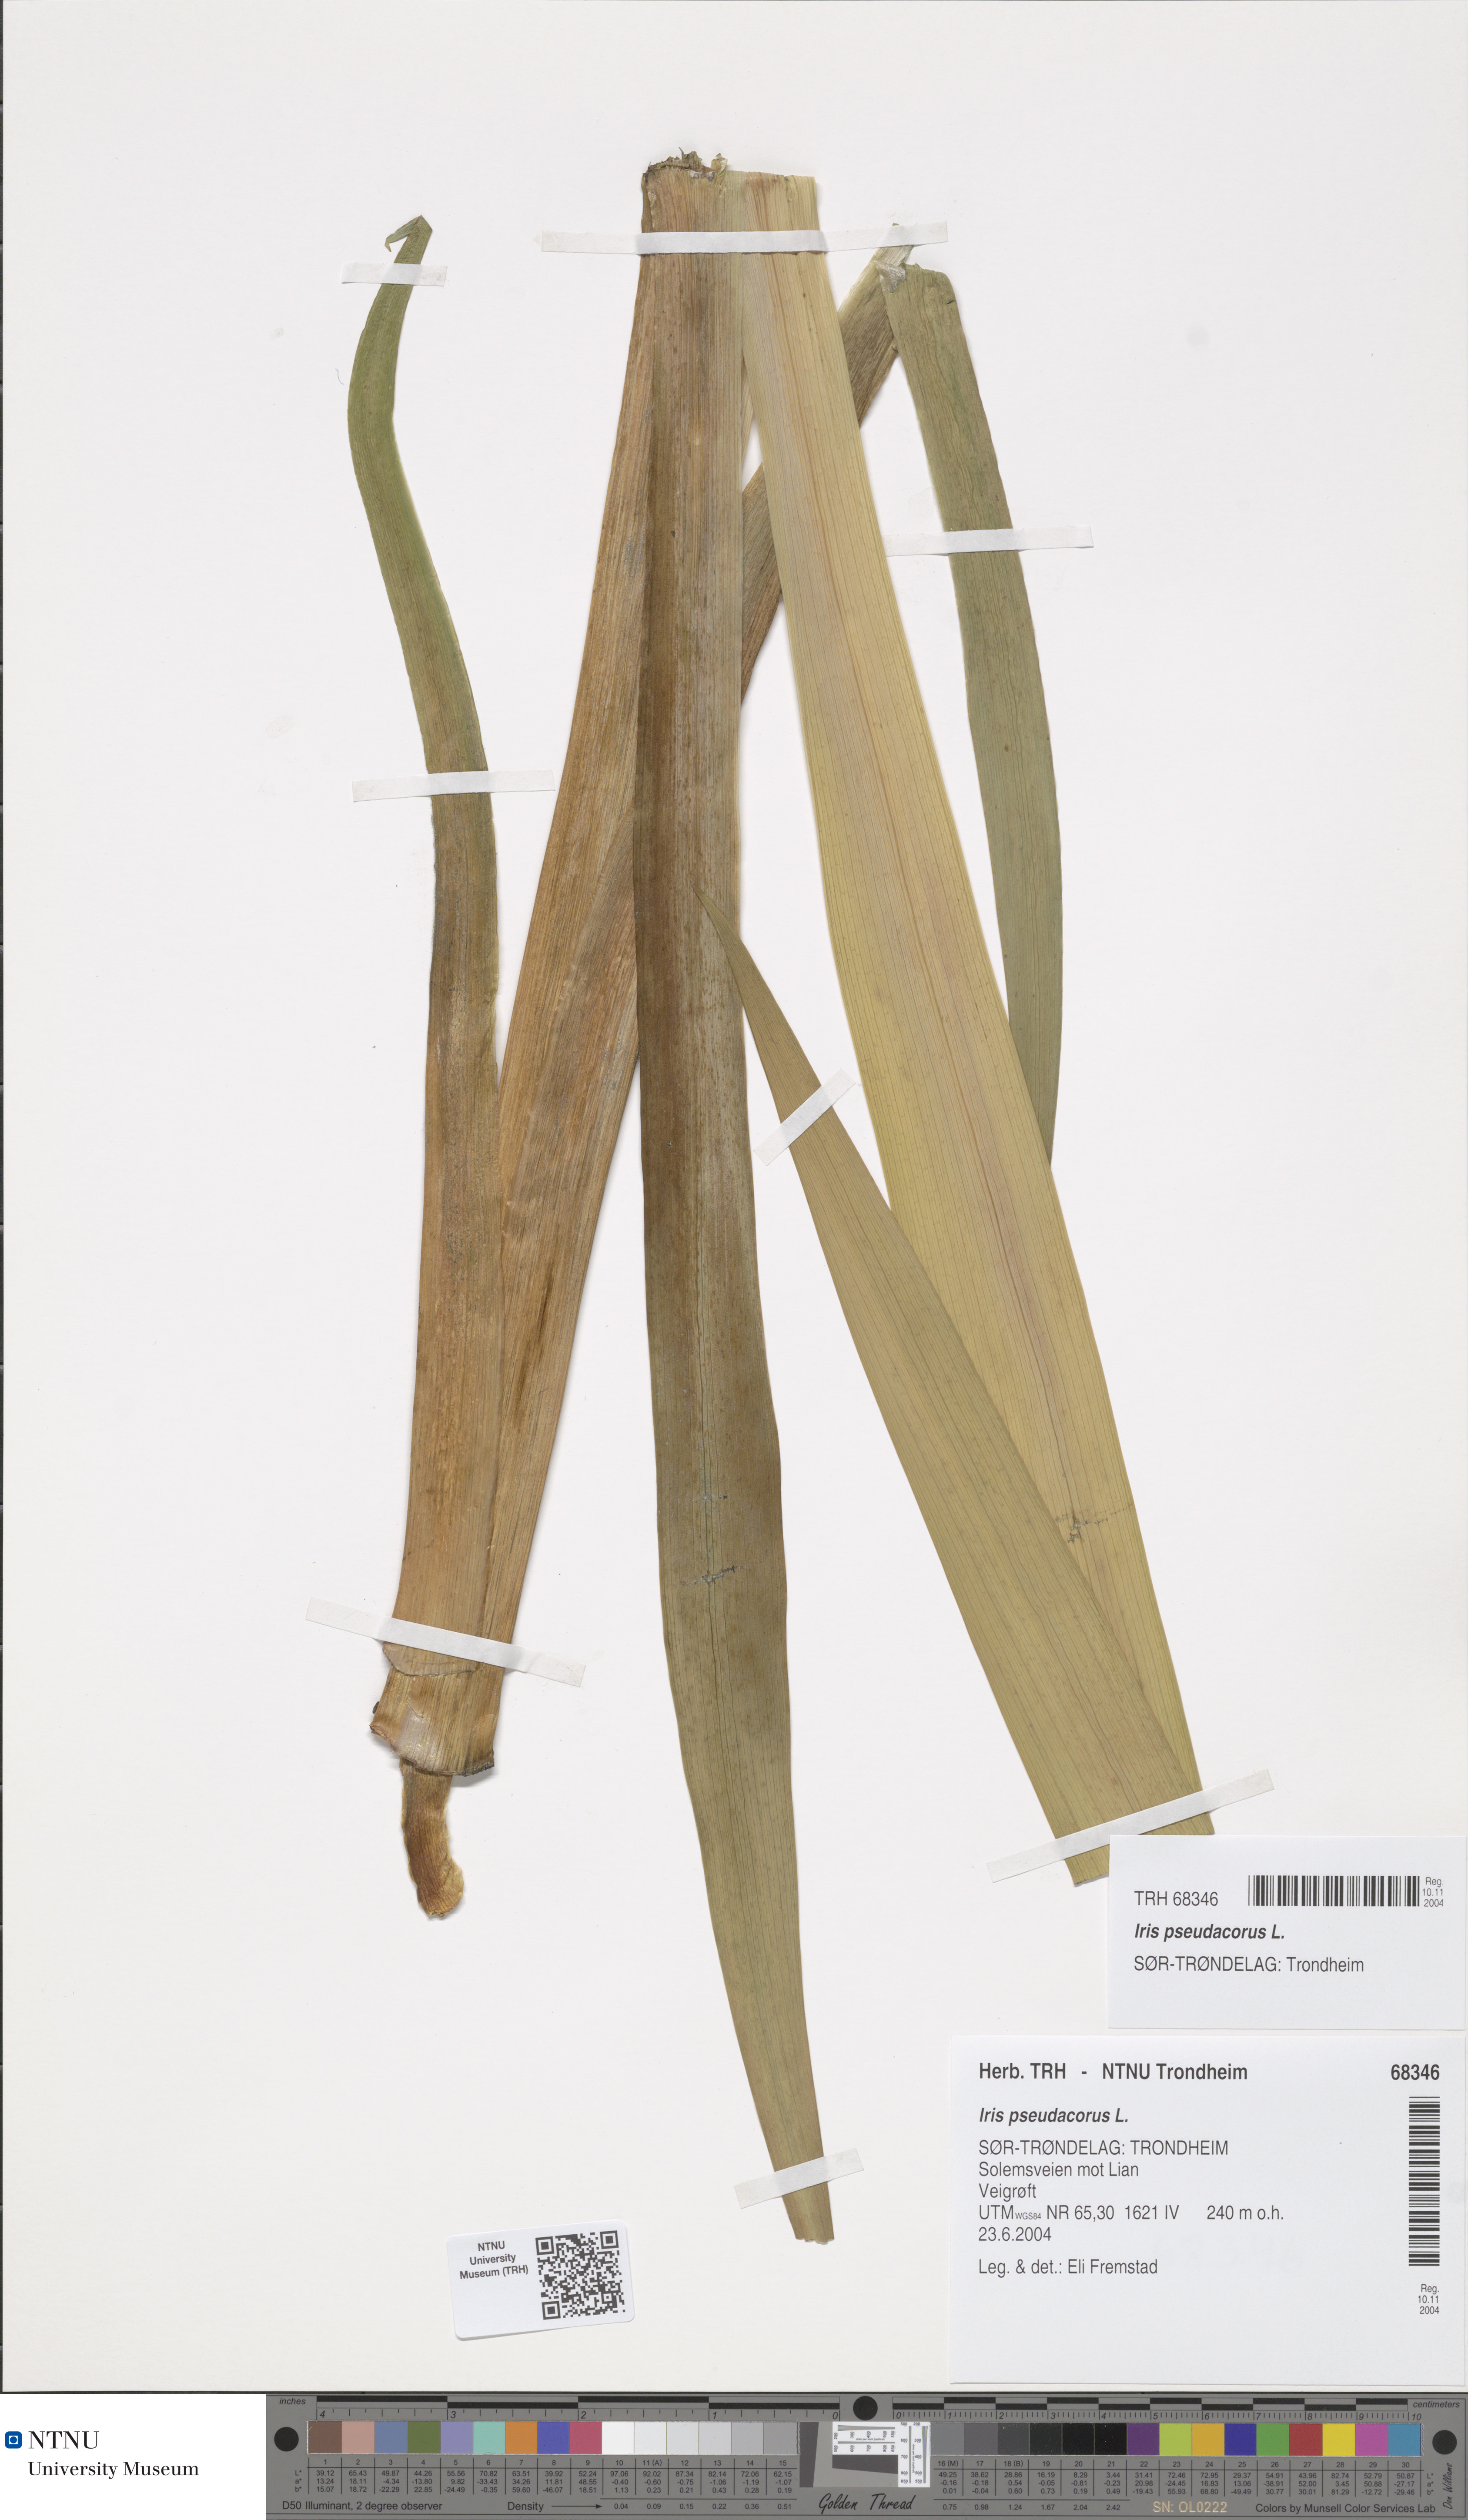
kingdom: Plantae
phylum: Tracheophyta
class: Liliopsida
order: Asparagales
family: Iridaceae
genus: Iris
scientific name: Iris pseudacorus
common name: Yellow flag
